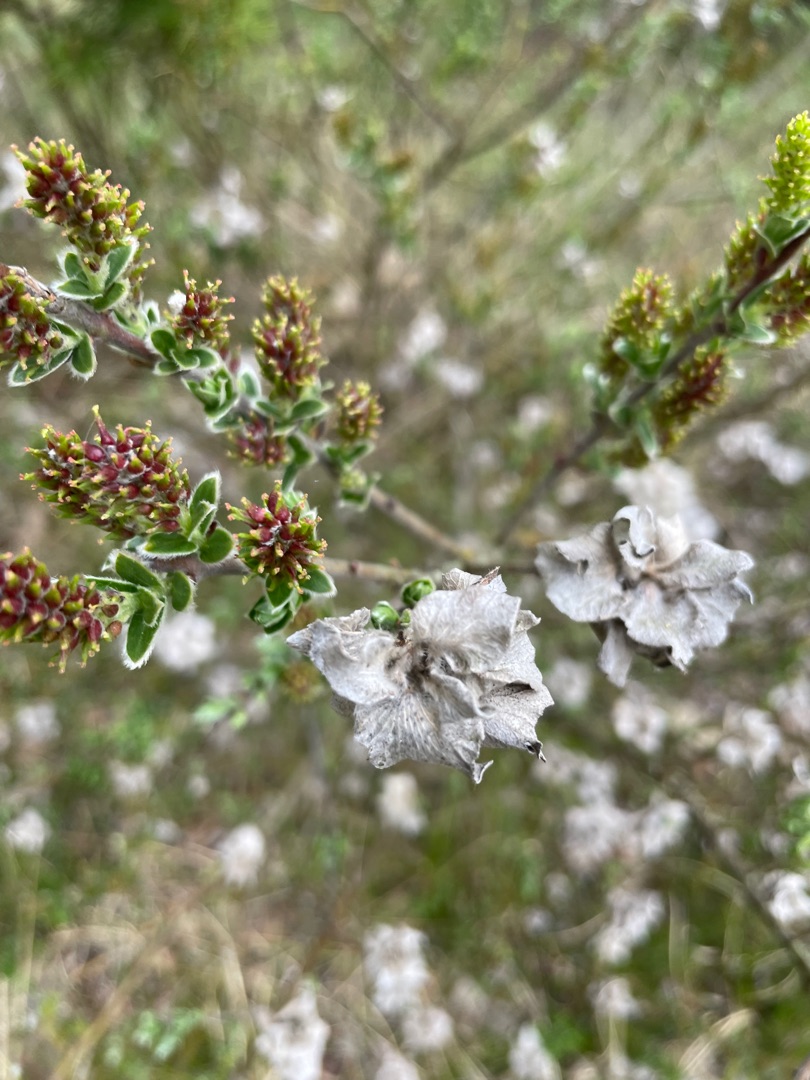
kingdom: Plantae
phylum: Tracheophyta
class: Magnoliopsida
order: Malpighiales
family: Salicaceae
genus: Salix
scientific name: Salix repens
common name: Krybende pil
